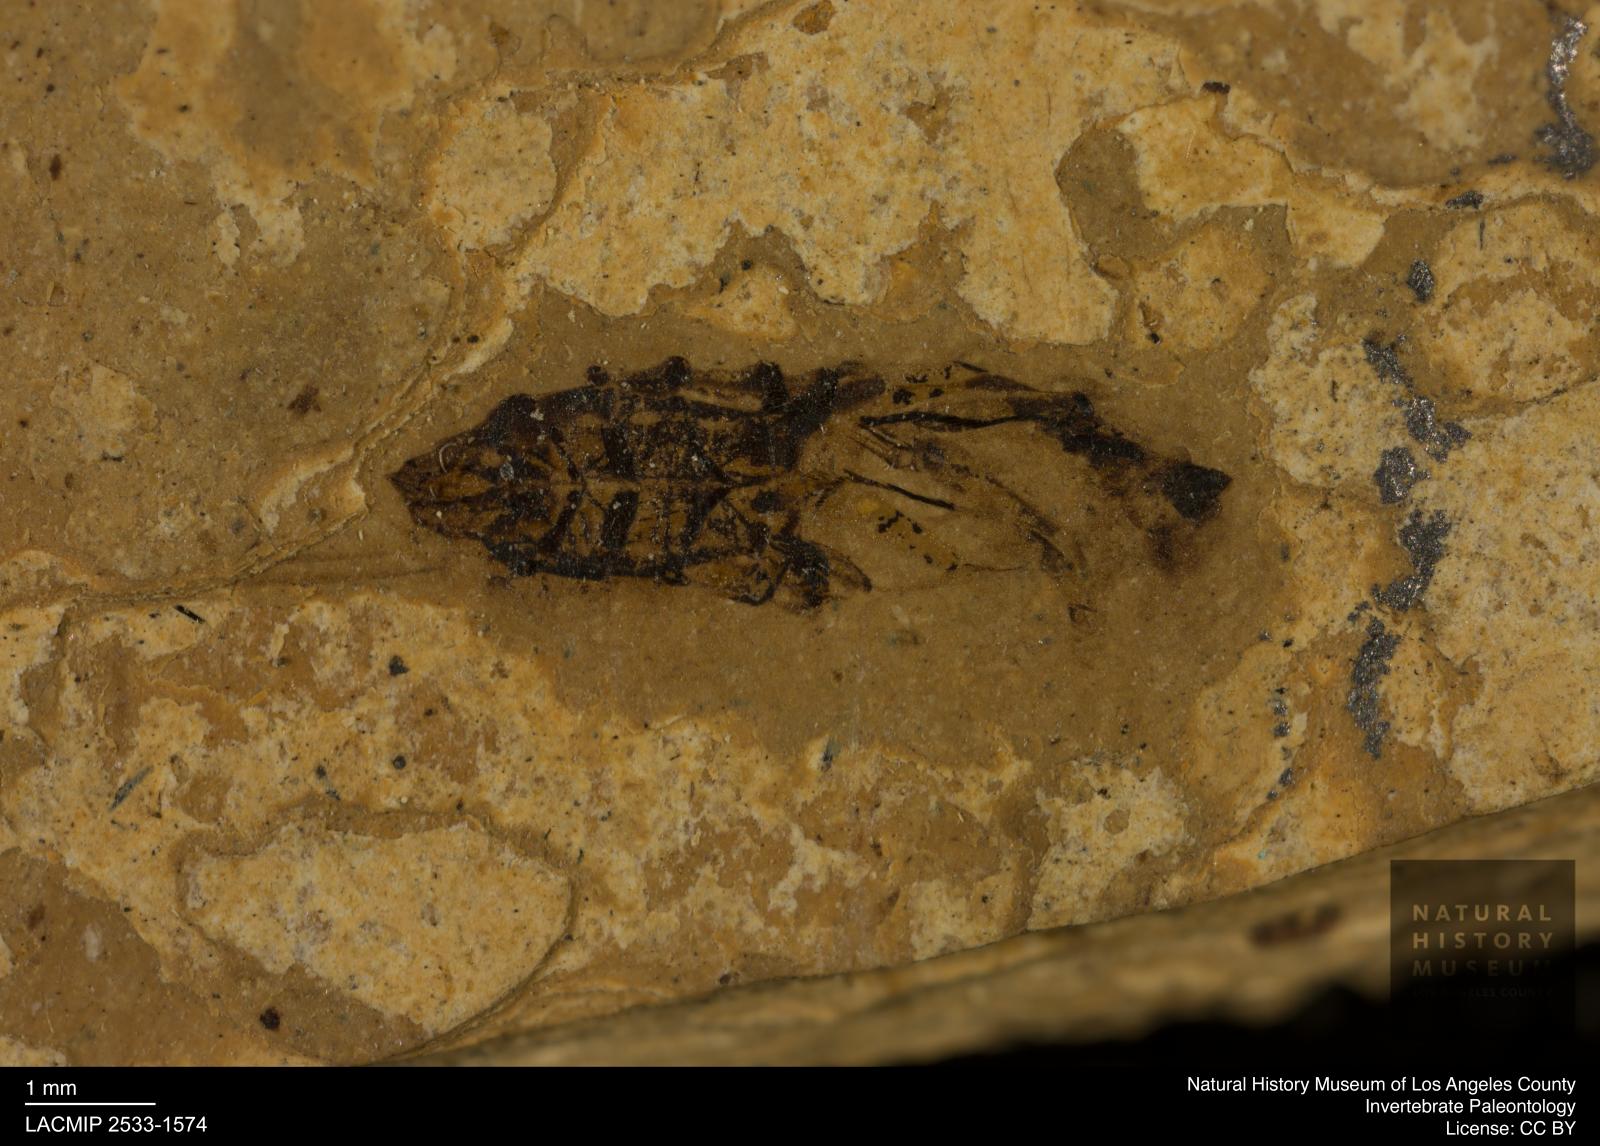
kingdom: Animalia
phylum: Arthropoda
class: Insecta
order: Hemiptera
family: Notonectidae
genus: Notonecta
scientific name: Notonecta
